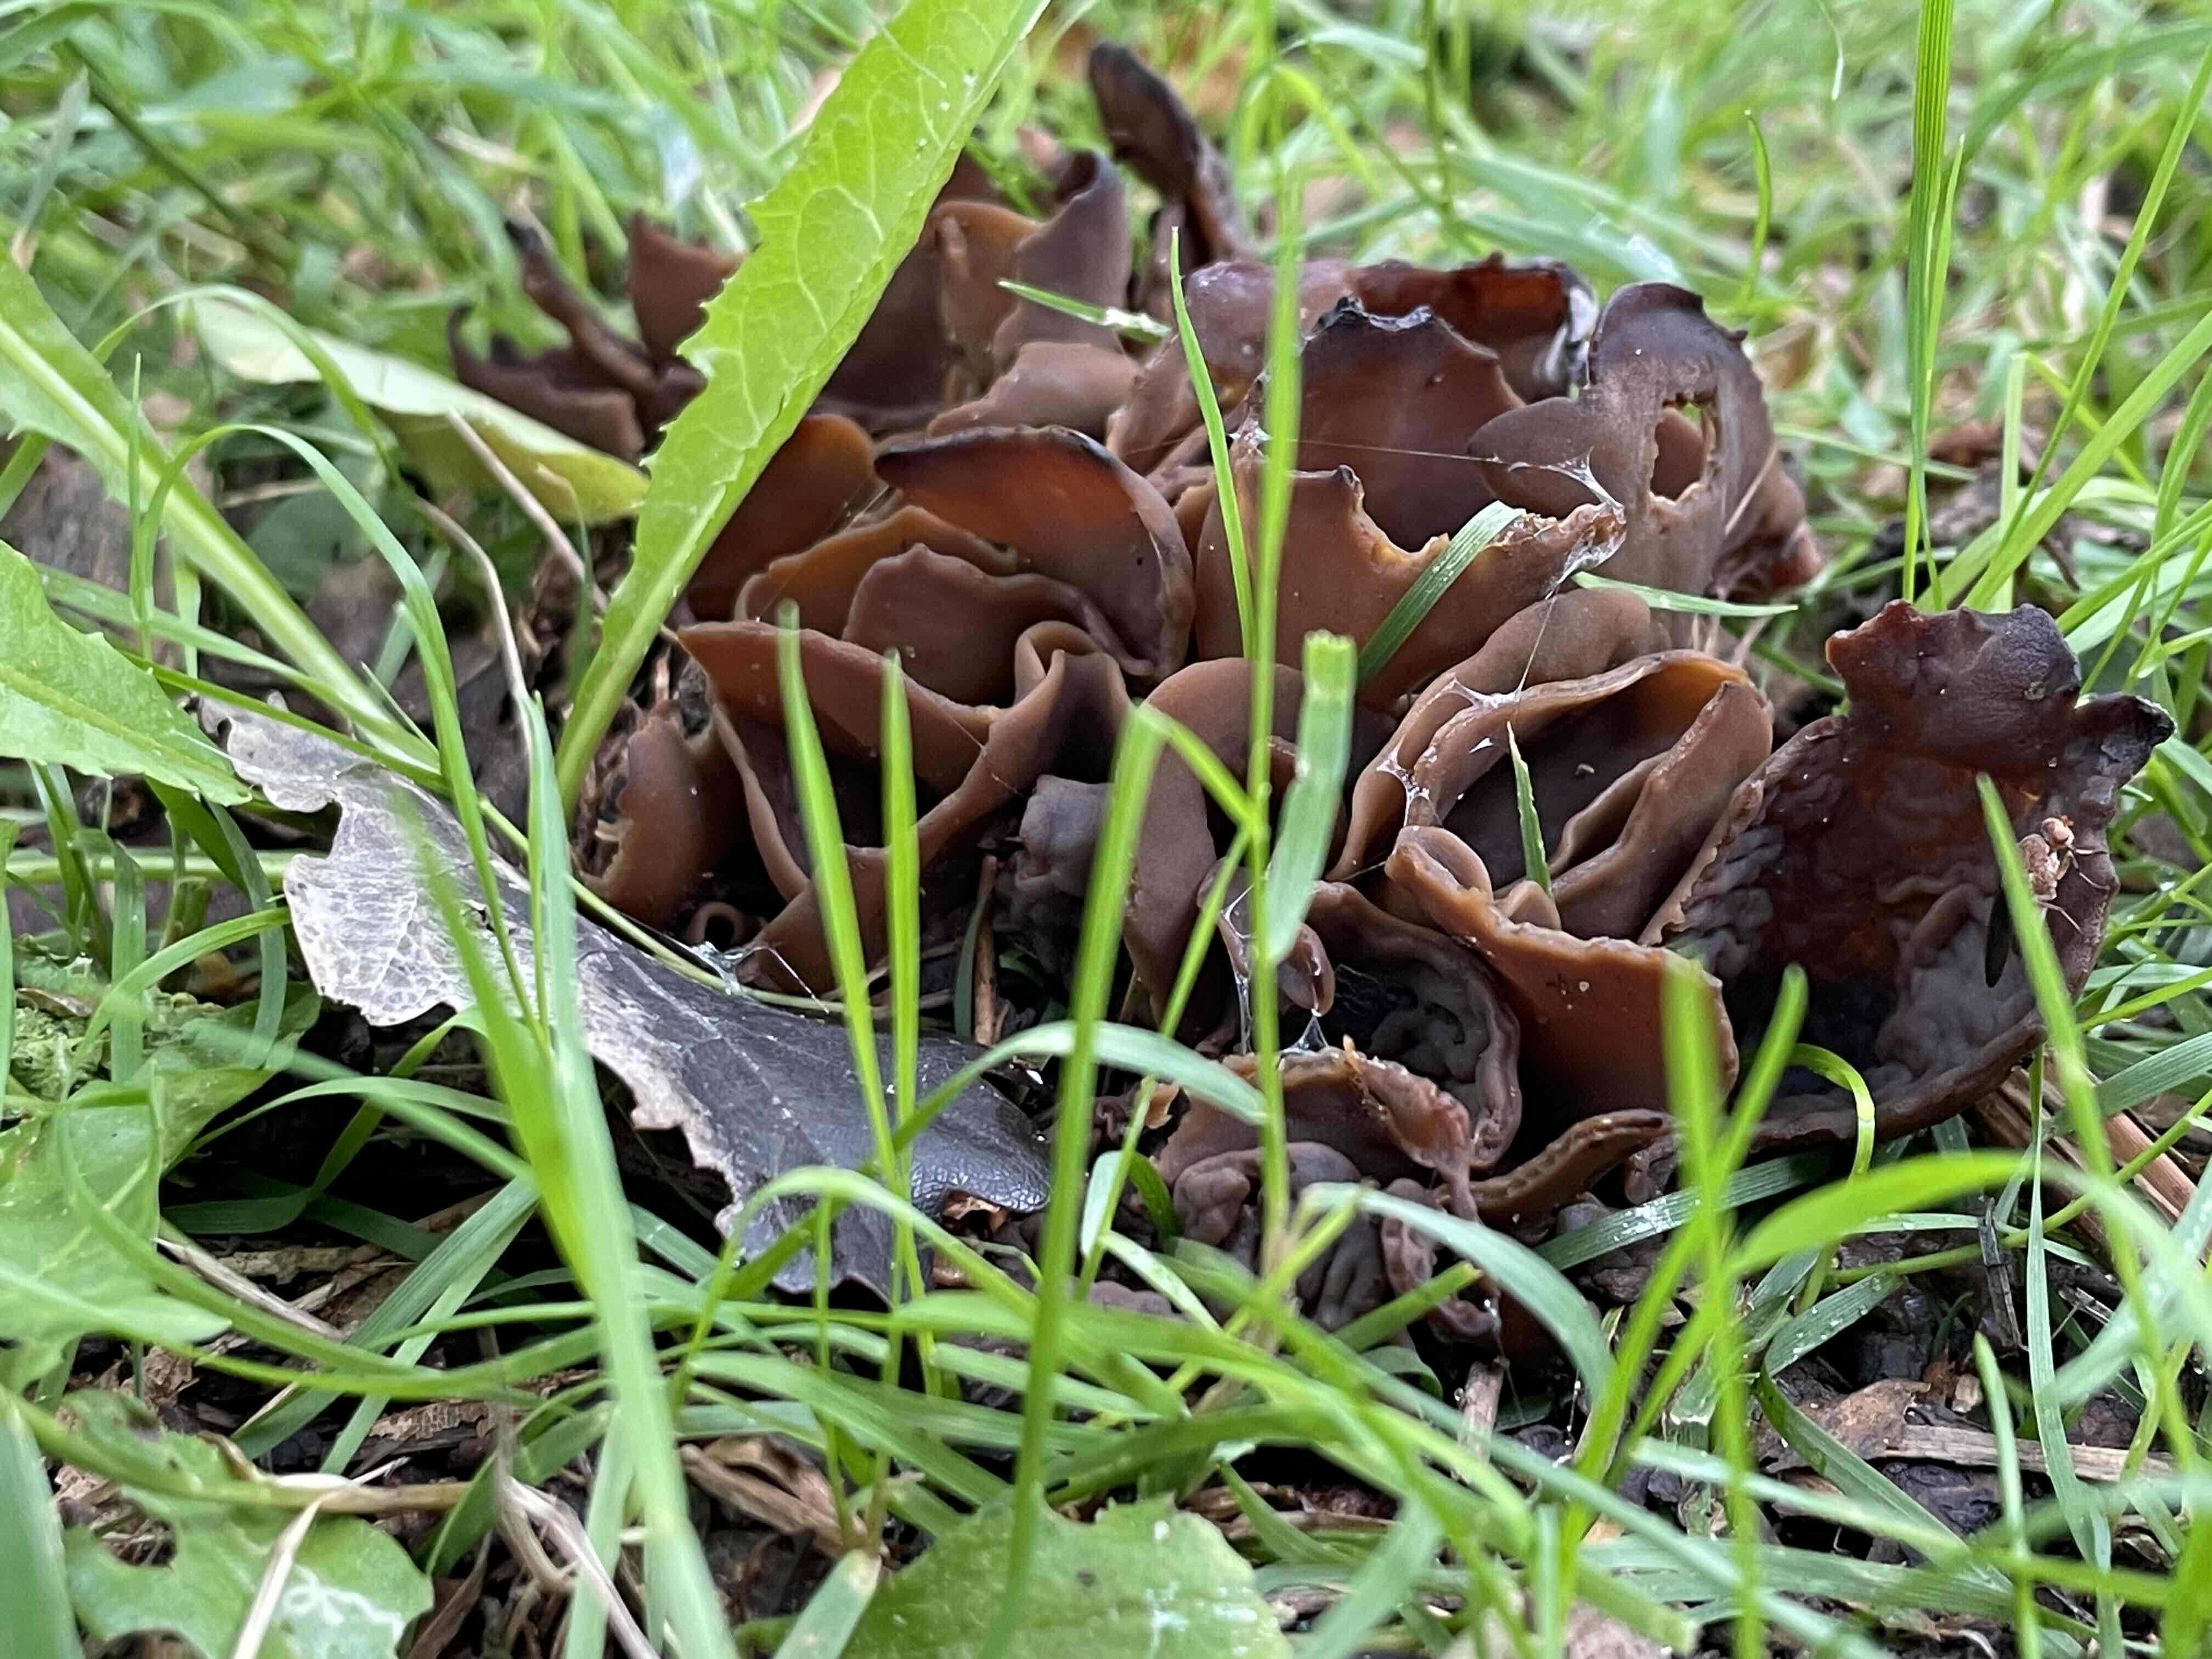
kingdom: Fungi
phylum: Ascomycota
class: Pezizomycetes
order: Pezizales
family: Otideaceae
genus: Otidea
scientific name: Otidea
